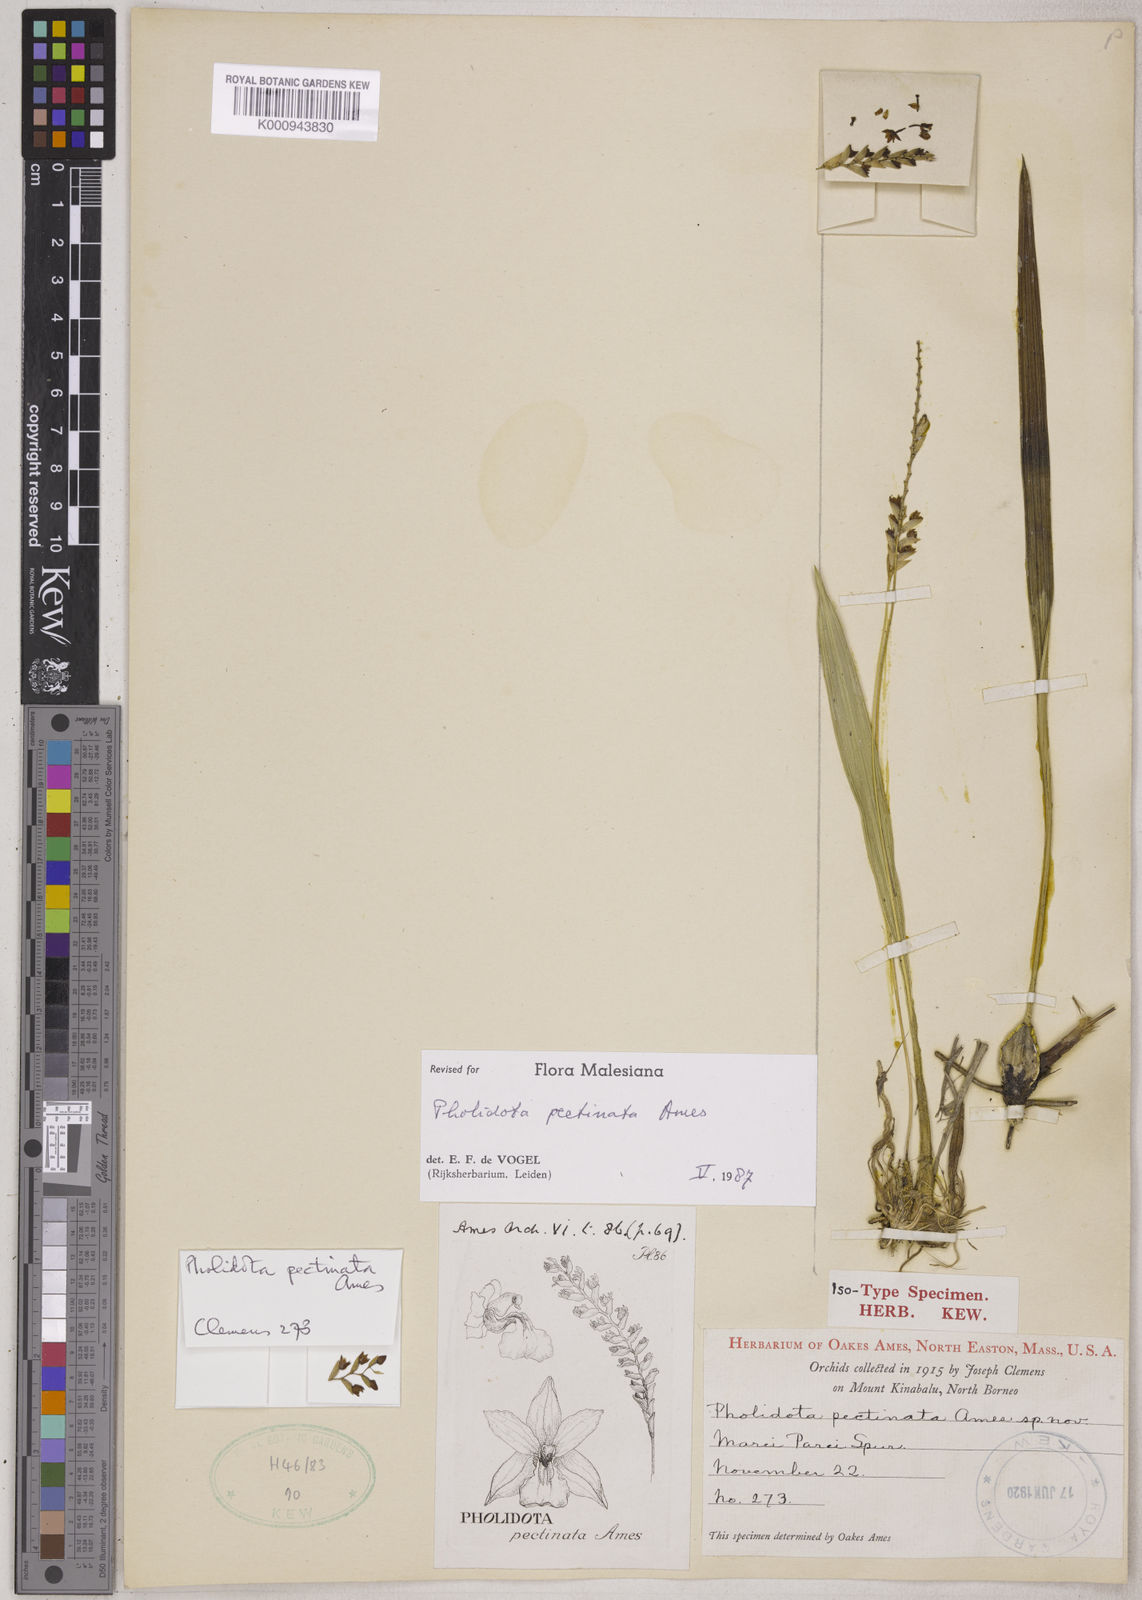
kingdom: Plantae
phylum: Tracheophyta
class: Liliopsida
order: Asparagales
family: Orchidaceae
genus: Coelogyne
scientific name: Coelogyne pectinata
